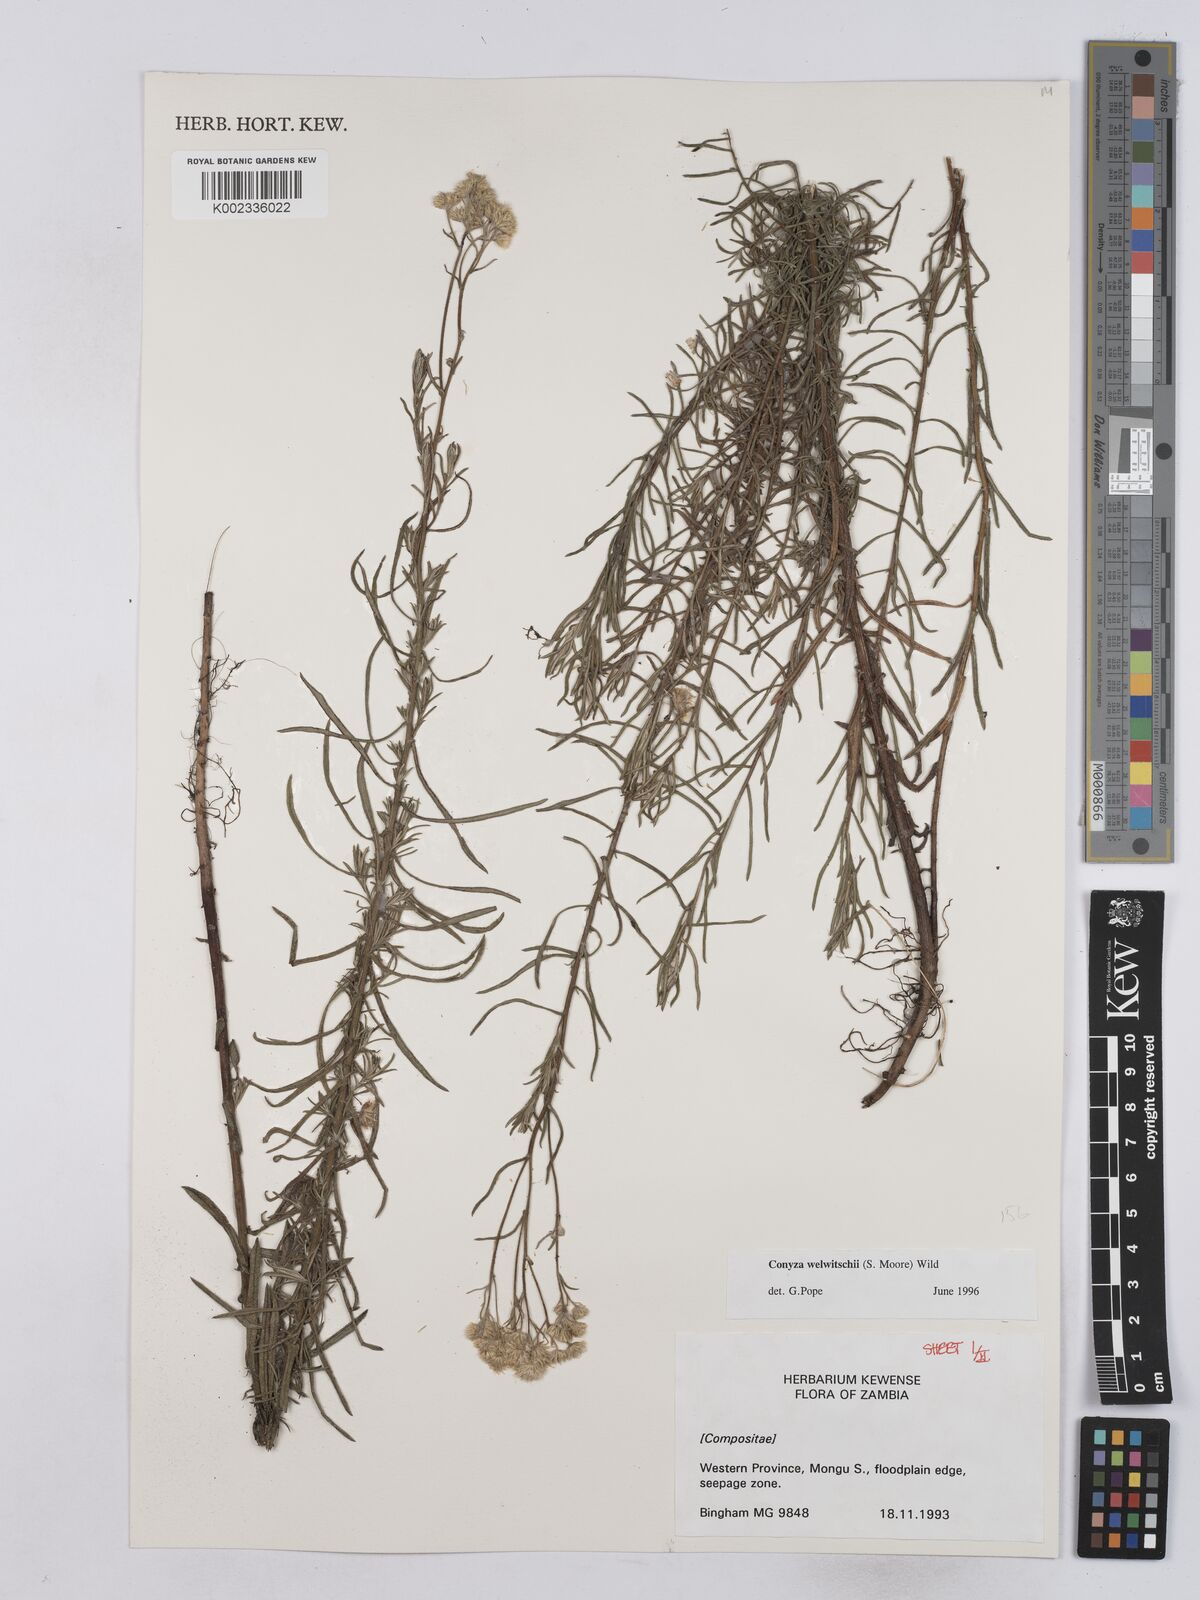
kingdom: Plantae
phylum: Tracheophyta
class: Magnoliopsida
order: Asterales
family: Asteraceae
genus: Nidorella
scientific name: Nidorella welwitschii
